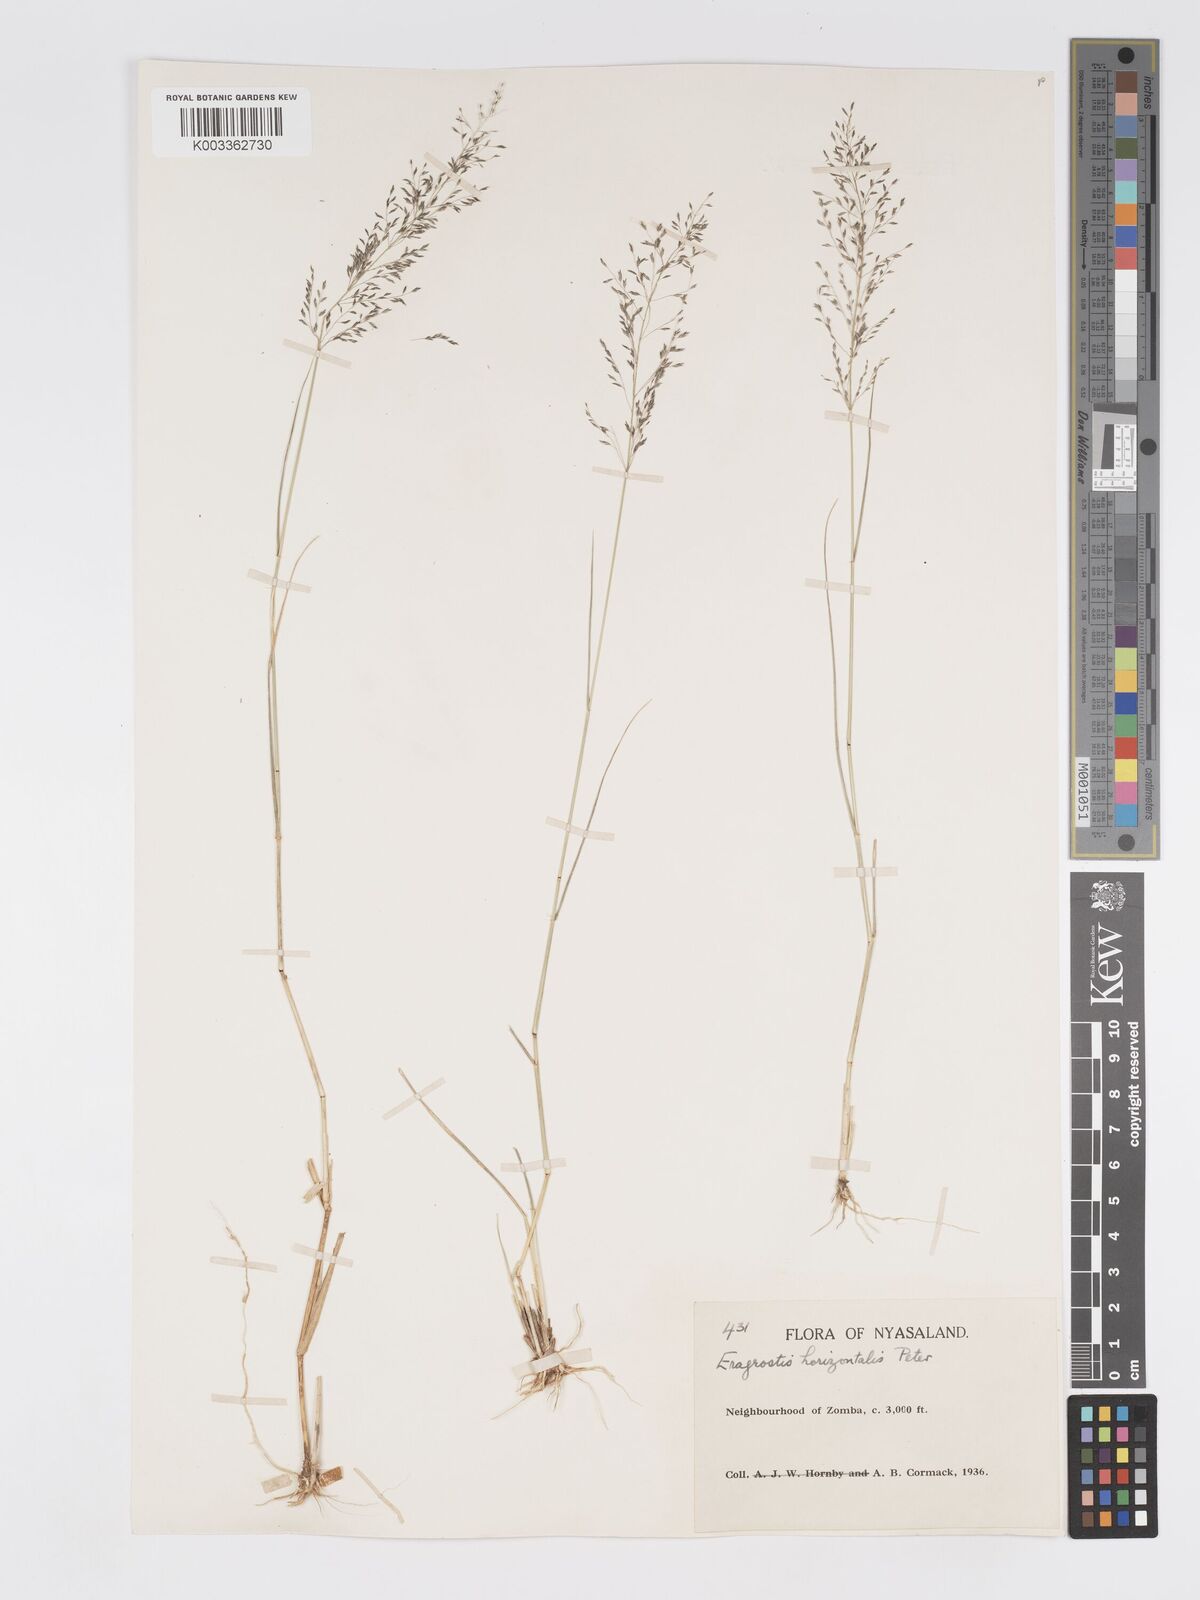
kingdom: Plantae
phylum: Tracheophyta
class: Liliopsida
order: Poales
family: Poaceae
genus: Eragrostis
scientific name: Eragrostis cylindriflora
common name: Cylinderflower lovegrass
